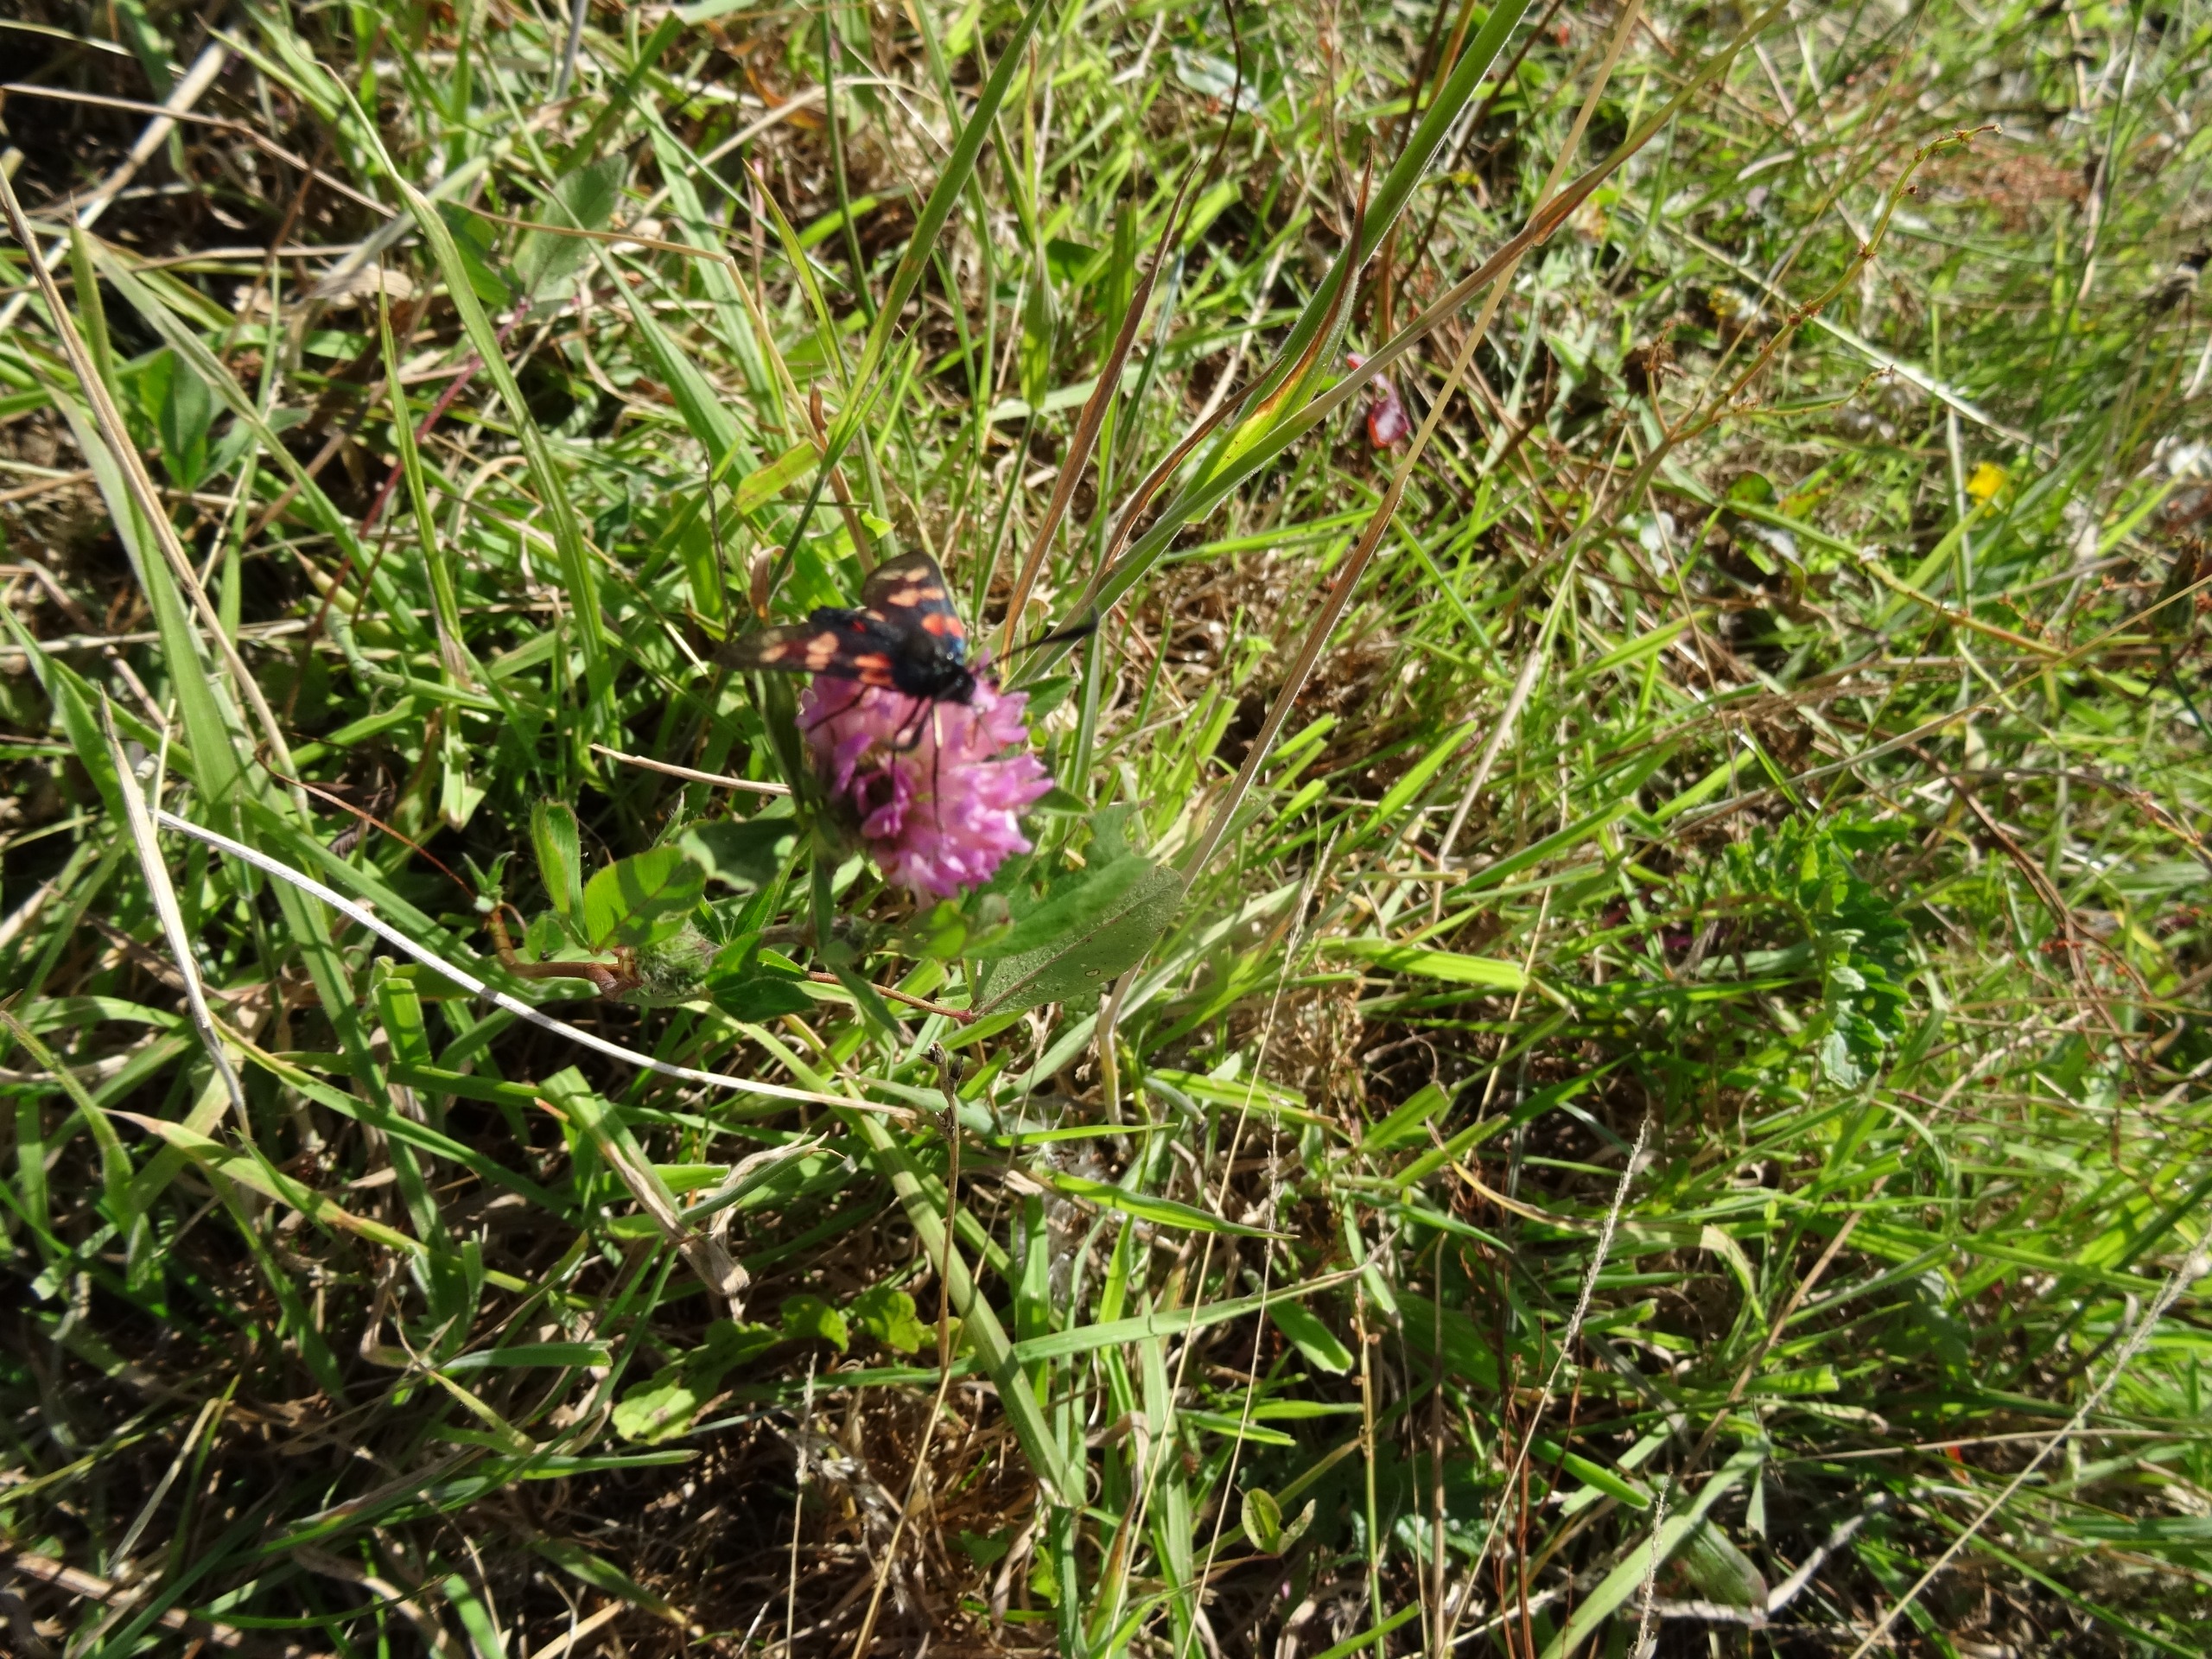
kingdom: Animalia
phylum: Arthropoda
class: Insecta
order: Lepidoptera
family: Zygaenidae
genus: Zygaena
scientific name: Zygaena filipendulae
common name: Seksplettet køllesværmer
